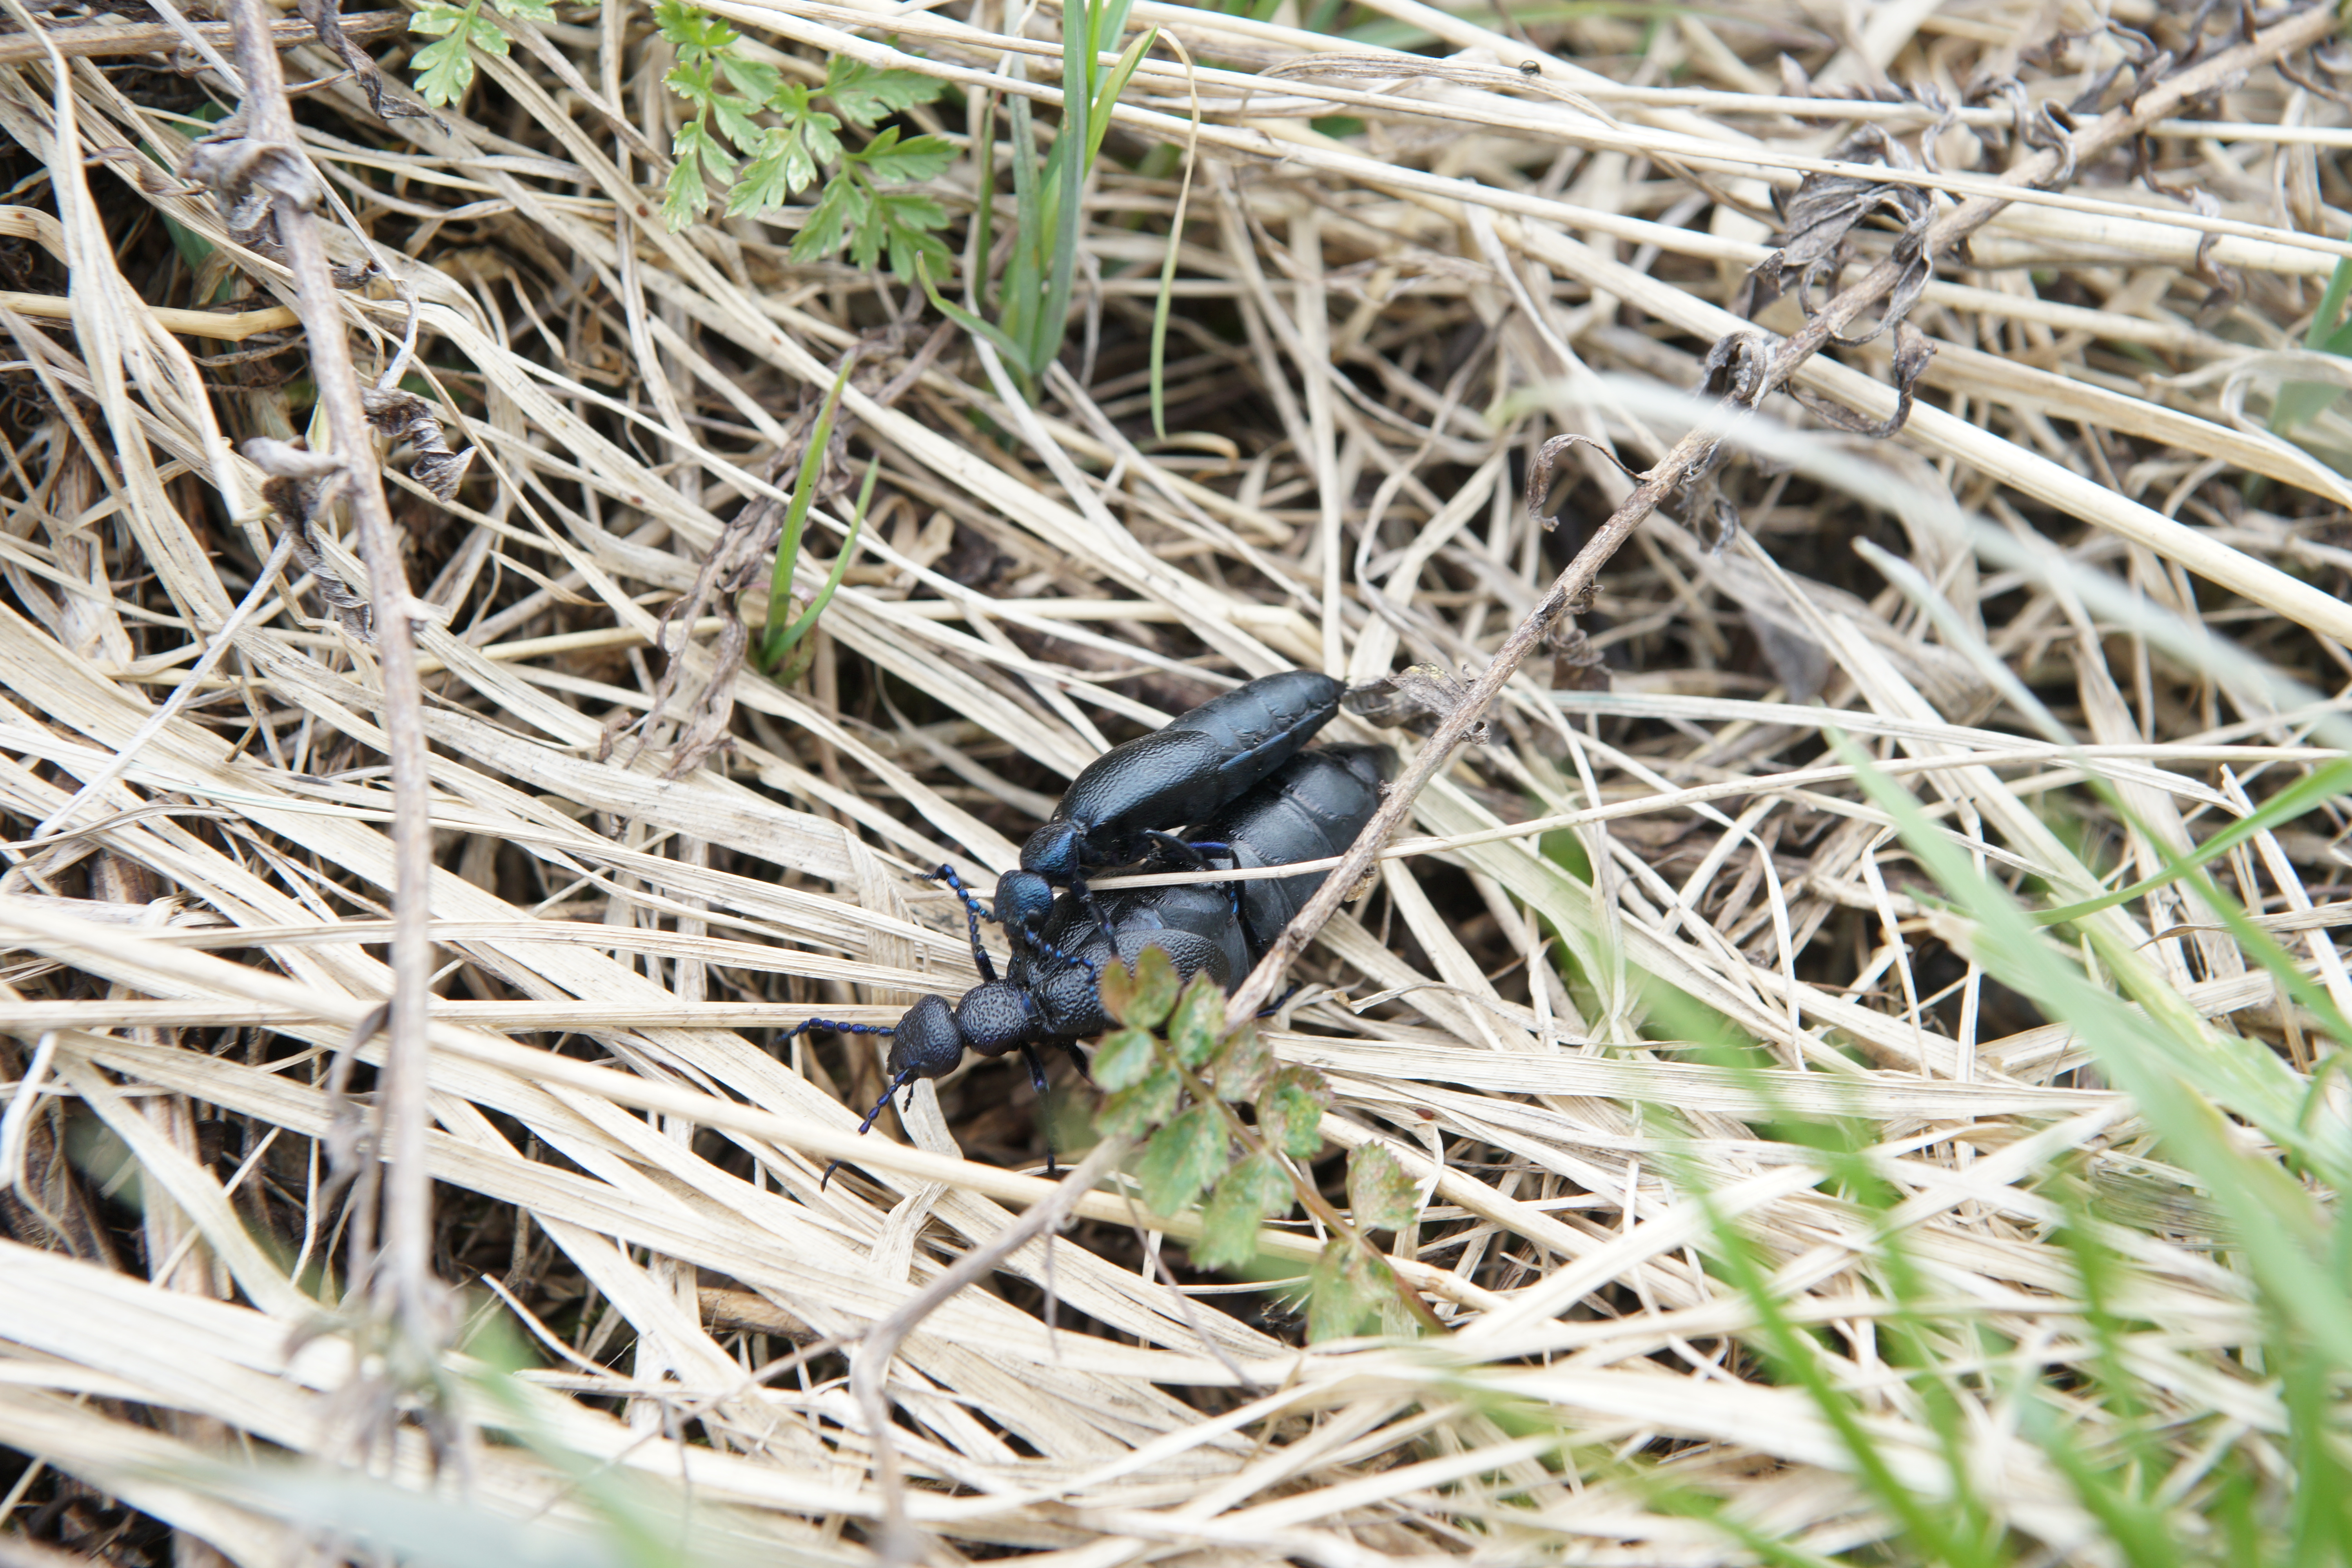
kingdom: Animalia
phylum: Arthropoda
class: Insecta
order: Coleoptera
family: Meloidae
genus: Meloe
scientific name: Meloe proscarabaeus
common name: Black oil-beetle
